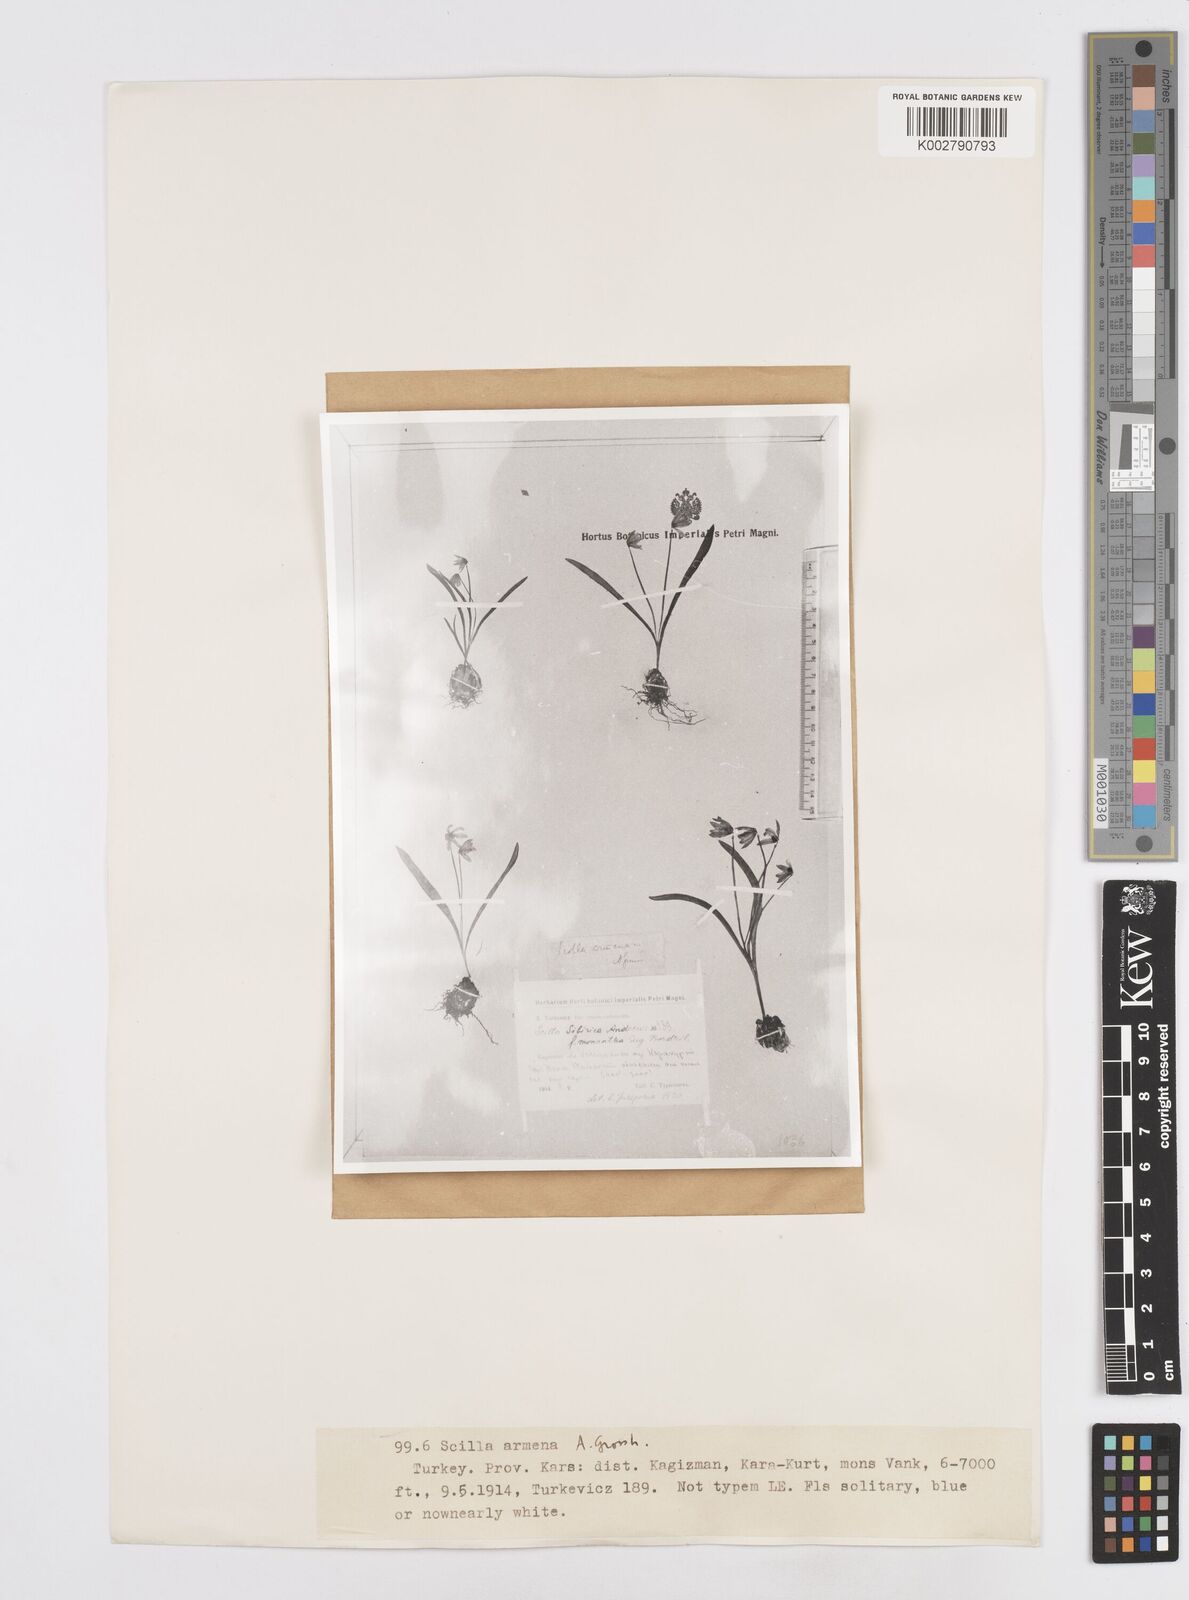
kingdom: Plantae
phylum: Tracheophyta
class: Liliopsida
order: Asparagales
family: Asparagaceae
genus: Scilla
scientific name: Scilla siberica
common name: Siberian squill
